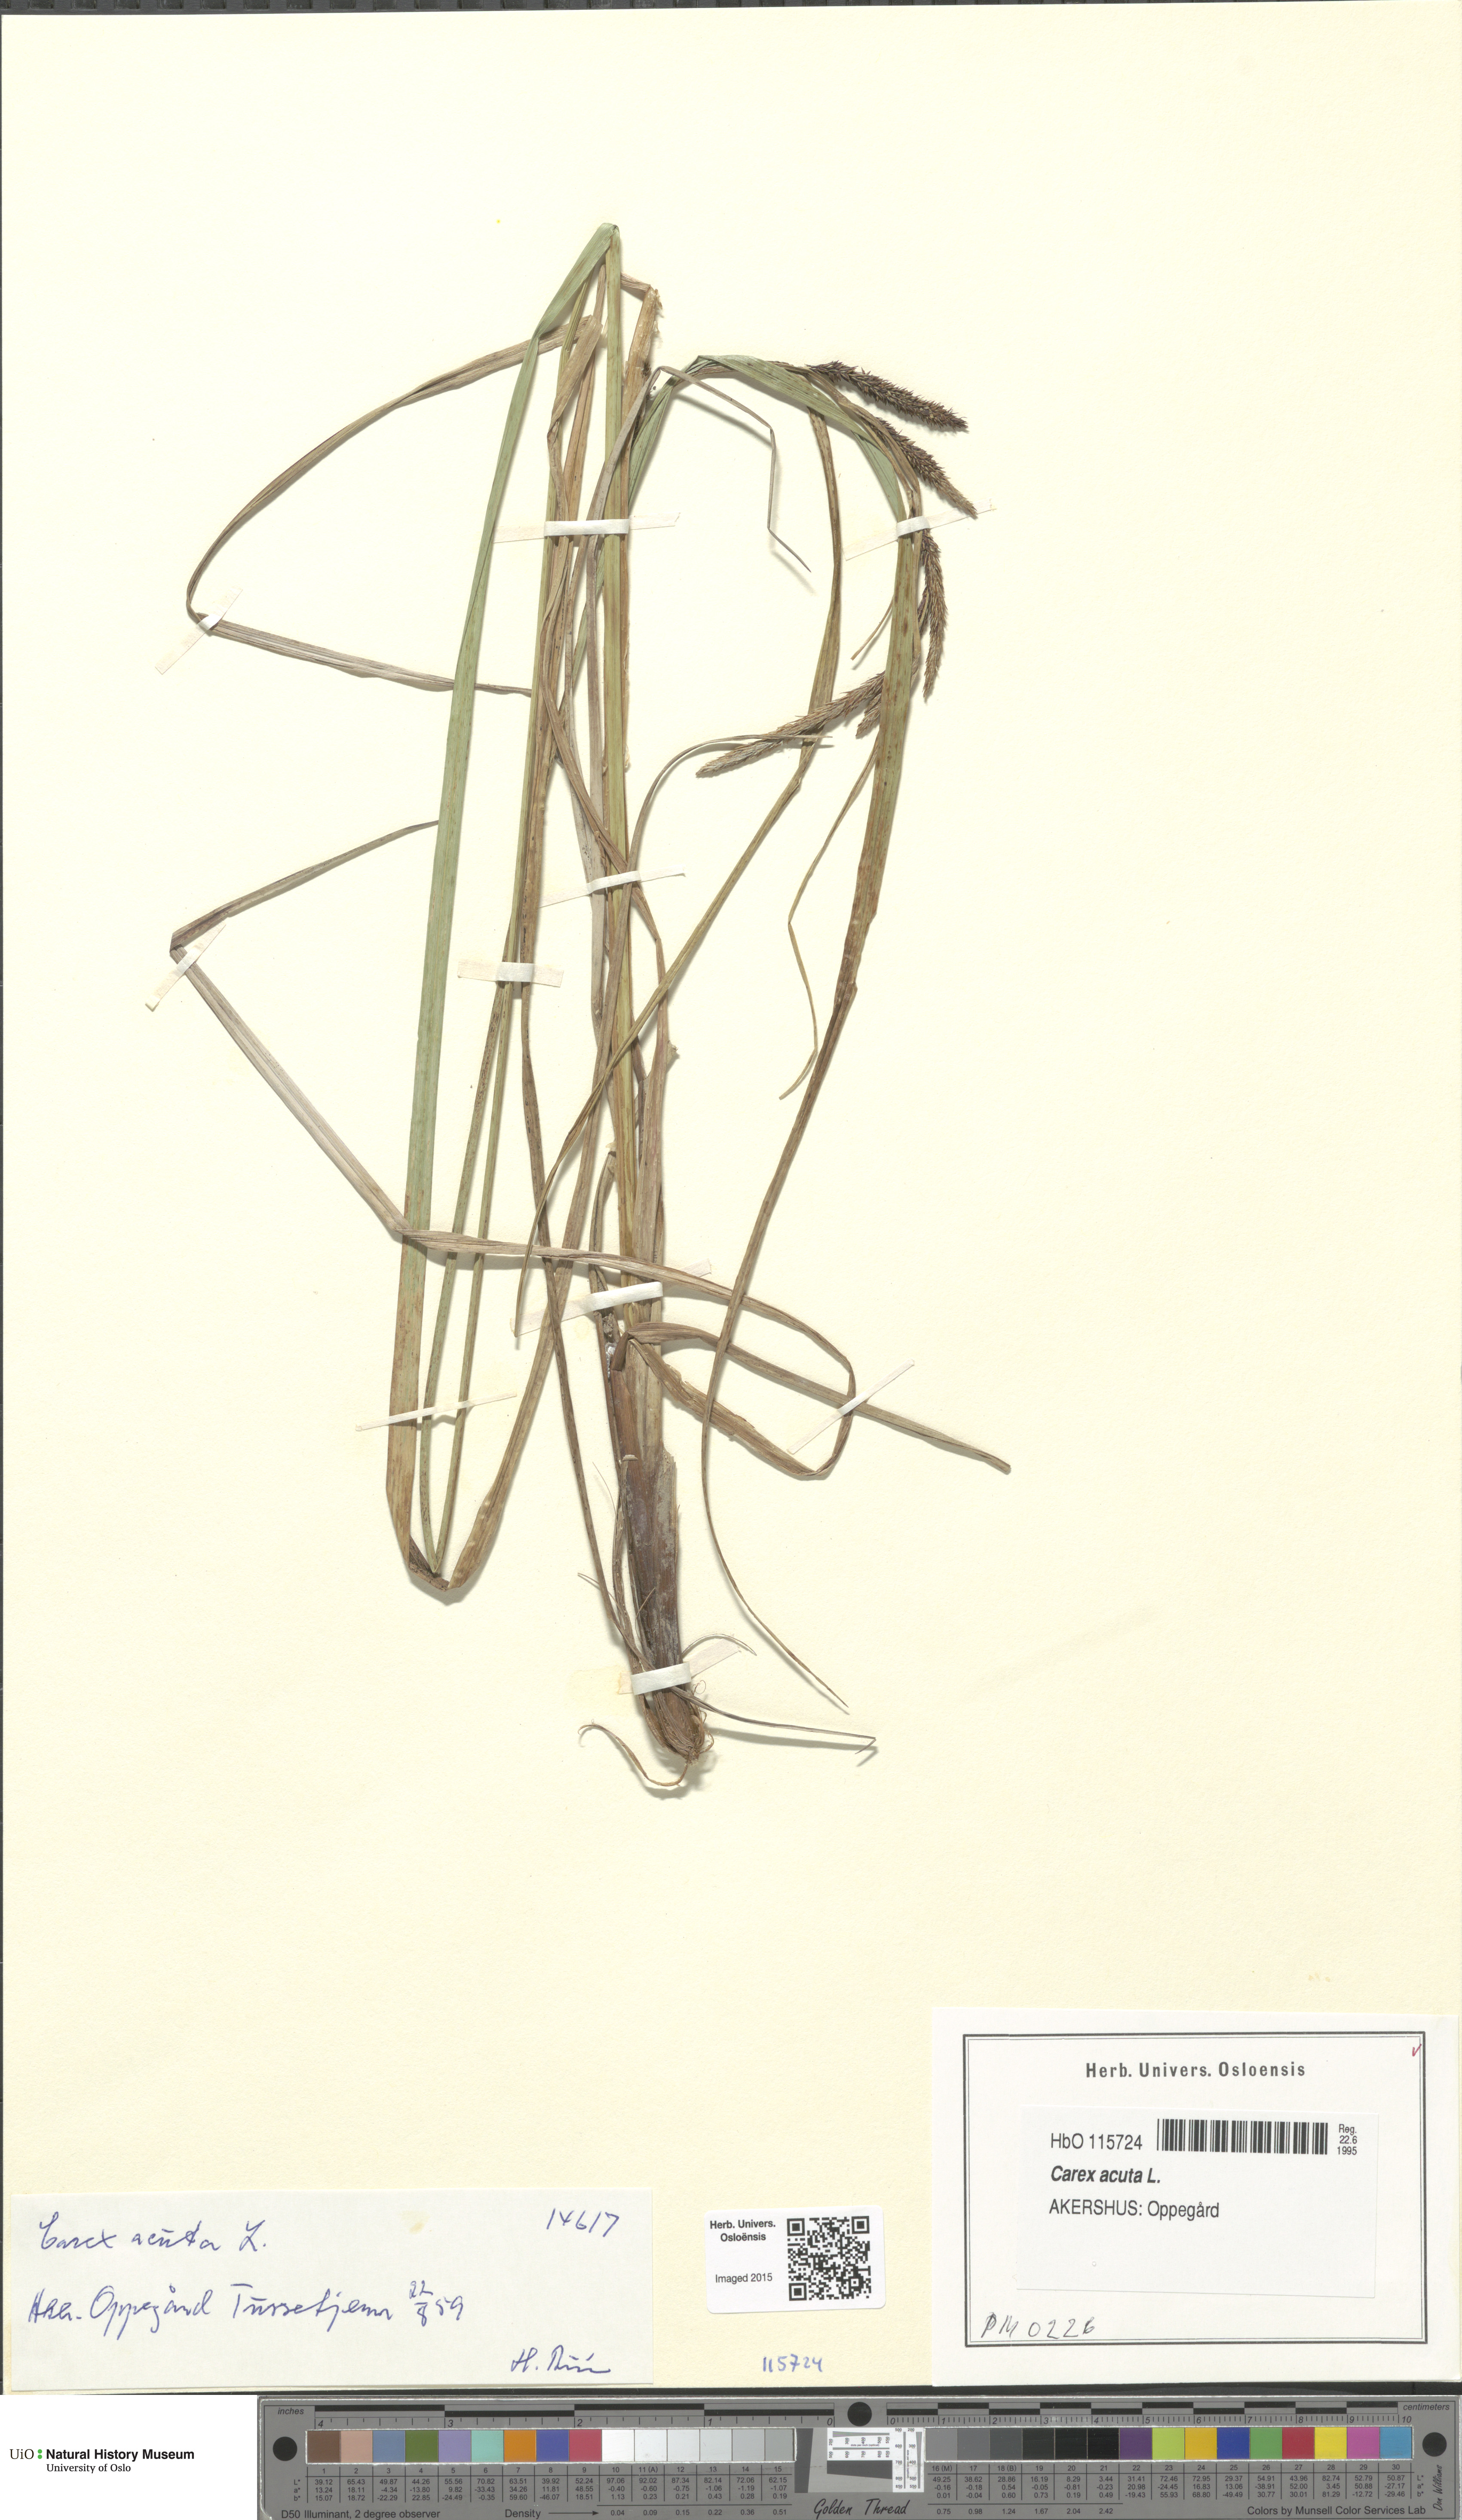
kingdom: Plantae
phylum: Tracheophyta
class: Liliopsida
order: Poales
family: Cyperaceae
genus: Carex
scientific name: Carex acuta
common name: Slender tufted-sedge
